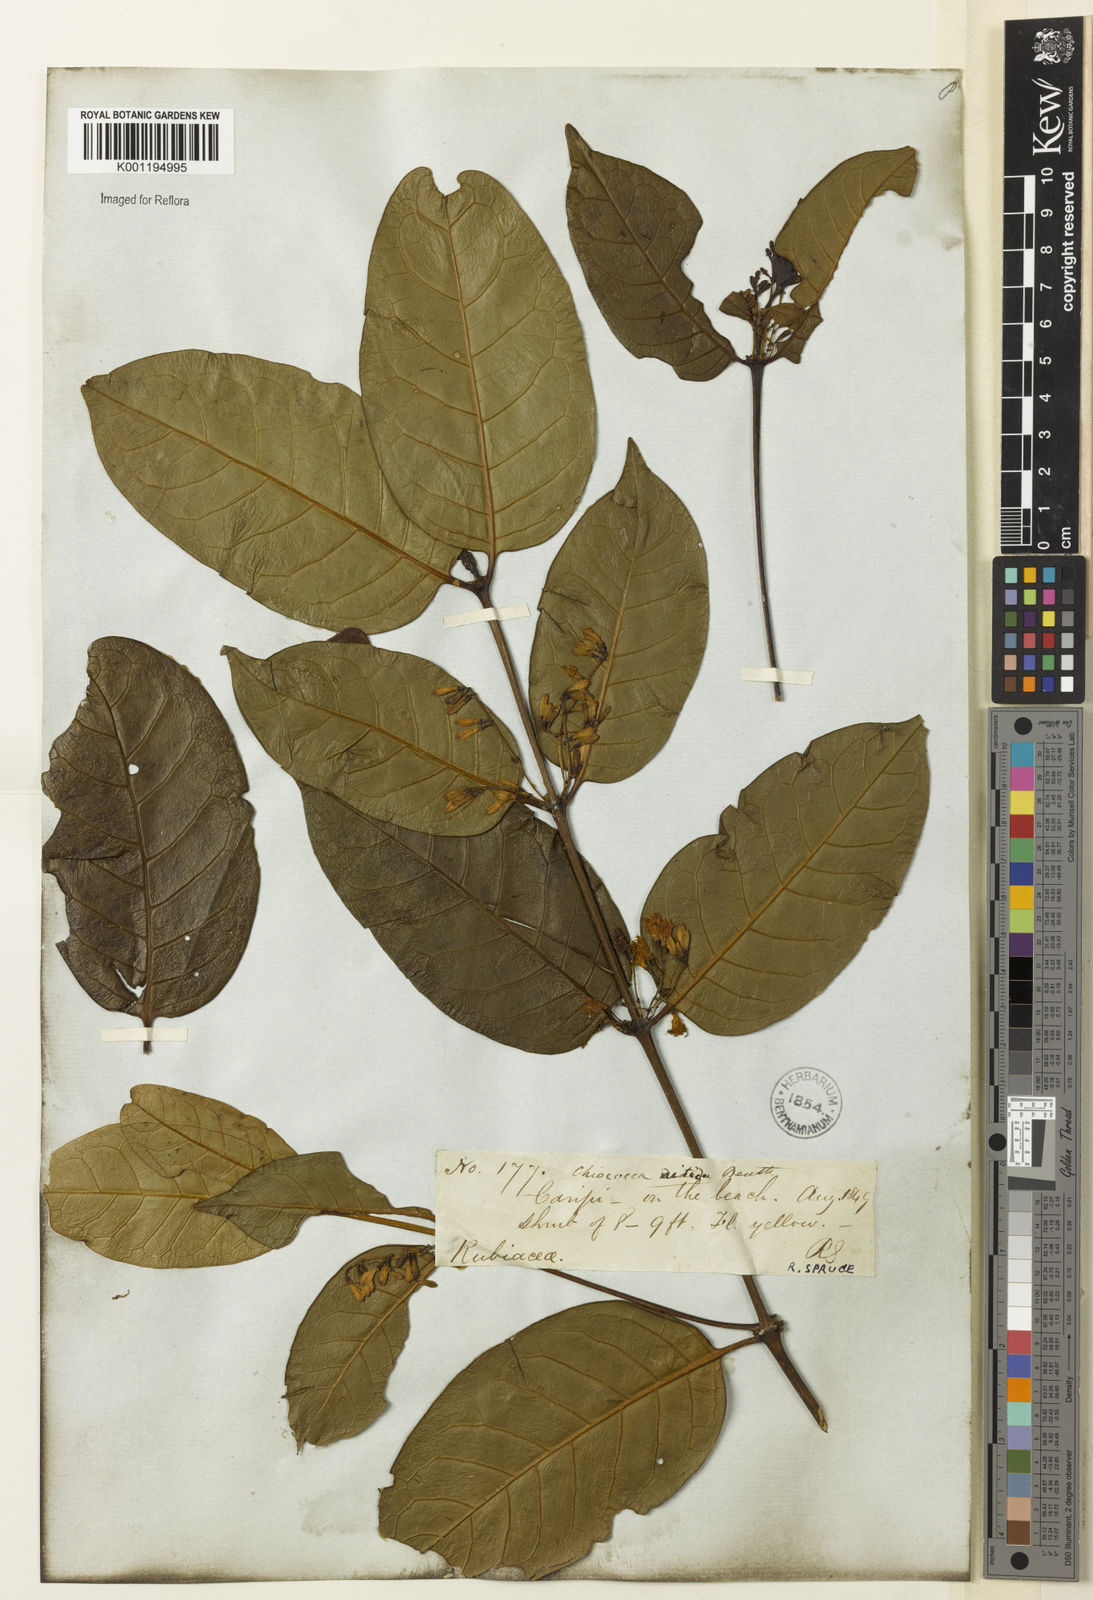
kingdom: Plantae
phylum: Tracheophyta
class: Magnoliopsida
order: Gentianales
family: Rubiaceae
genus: Chiococca
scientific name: Chiococca nitida
